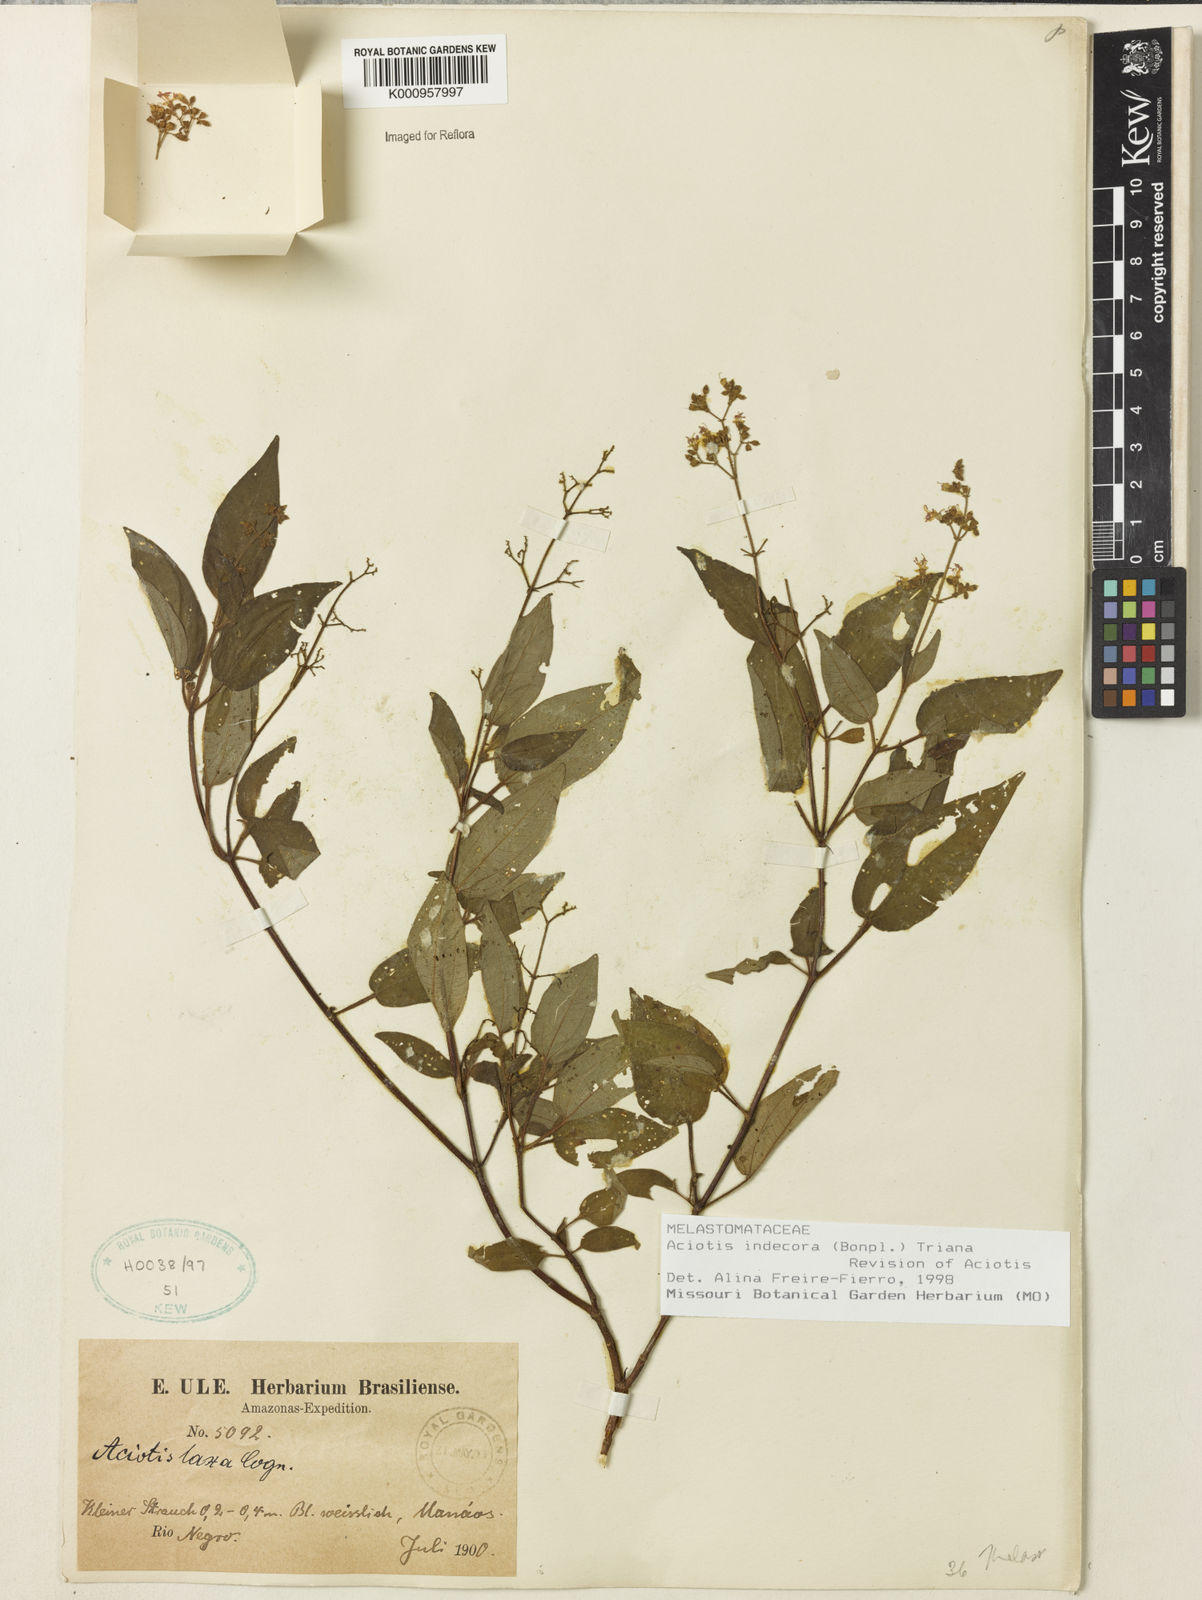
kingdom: Plantae
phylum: Tracheophyta
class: Magnoliopsida
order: Myrtales
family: Melastomataceae
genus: Aciotis
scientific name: Aciotis indecora
